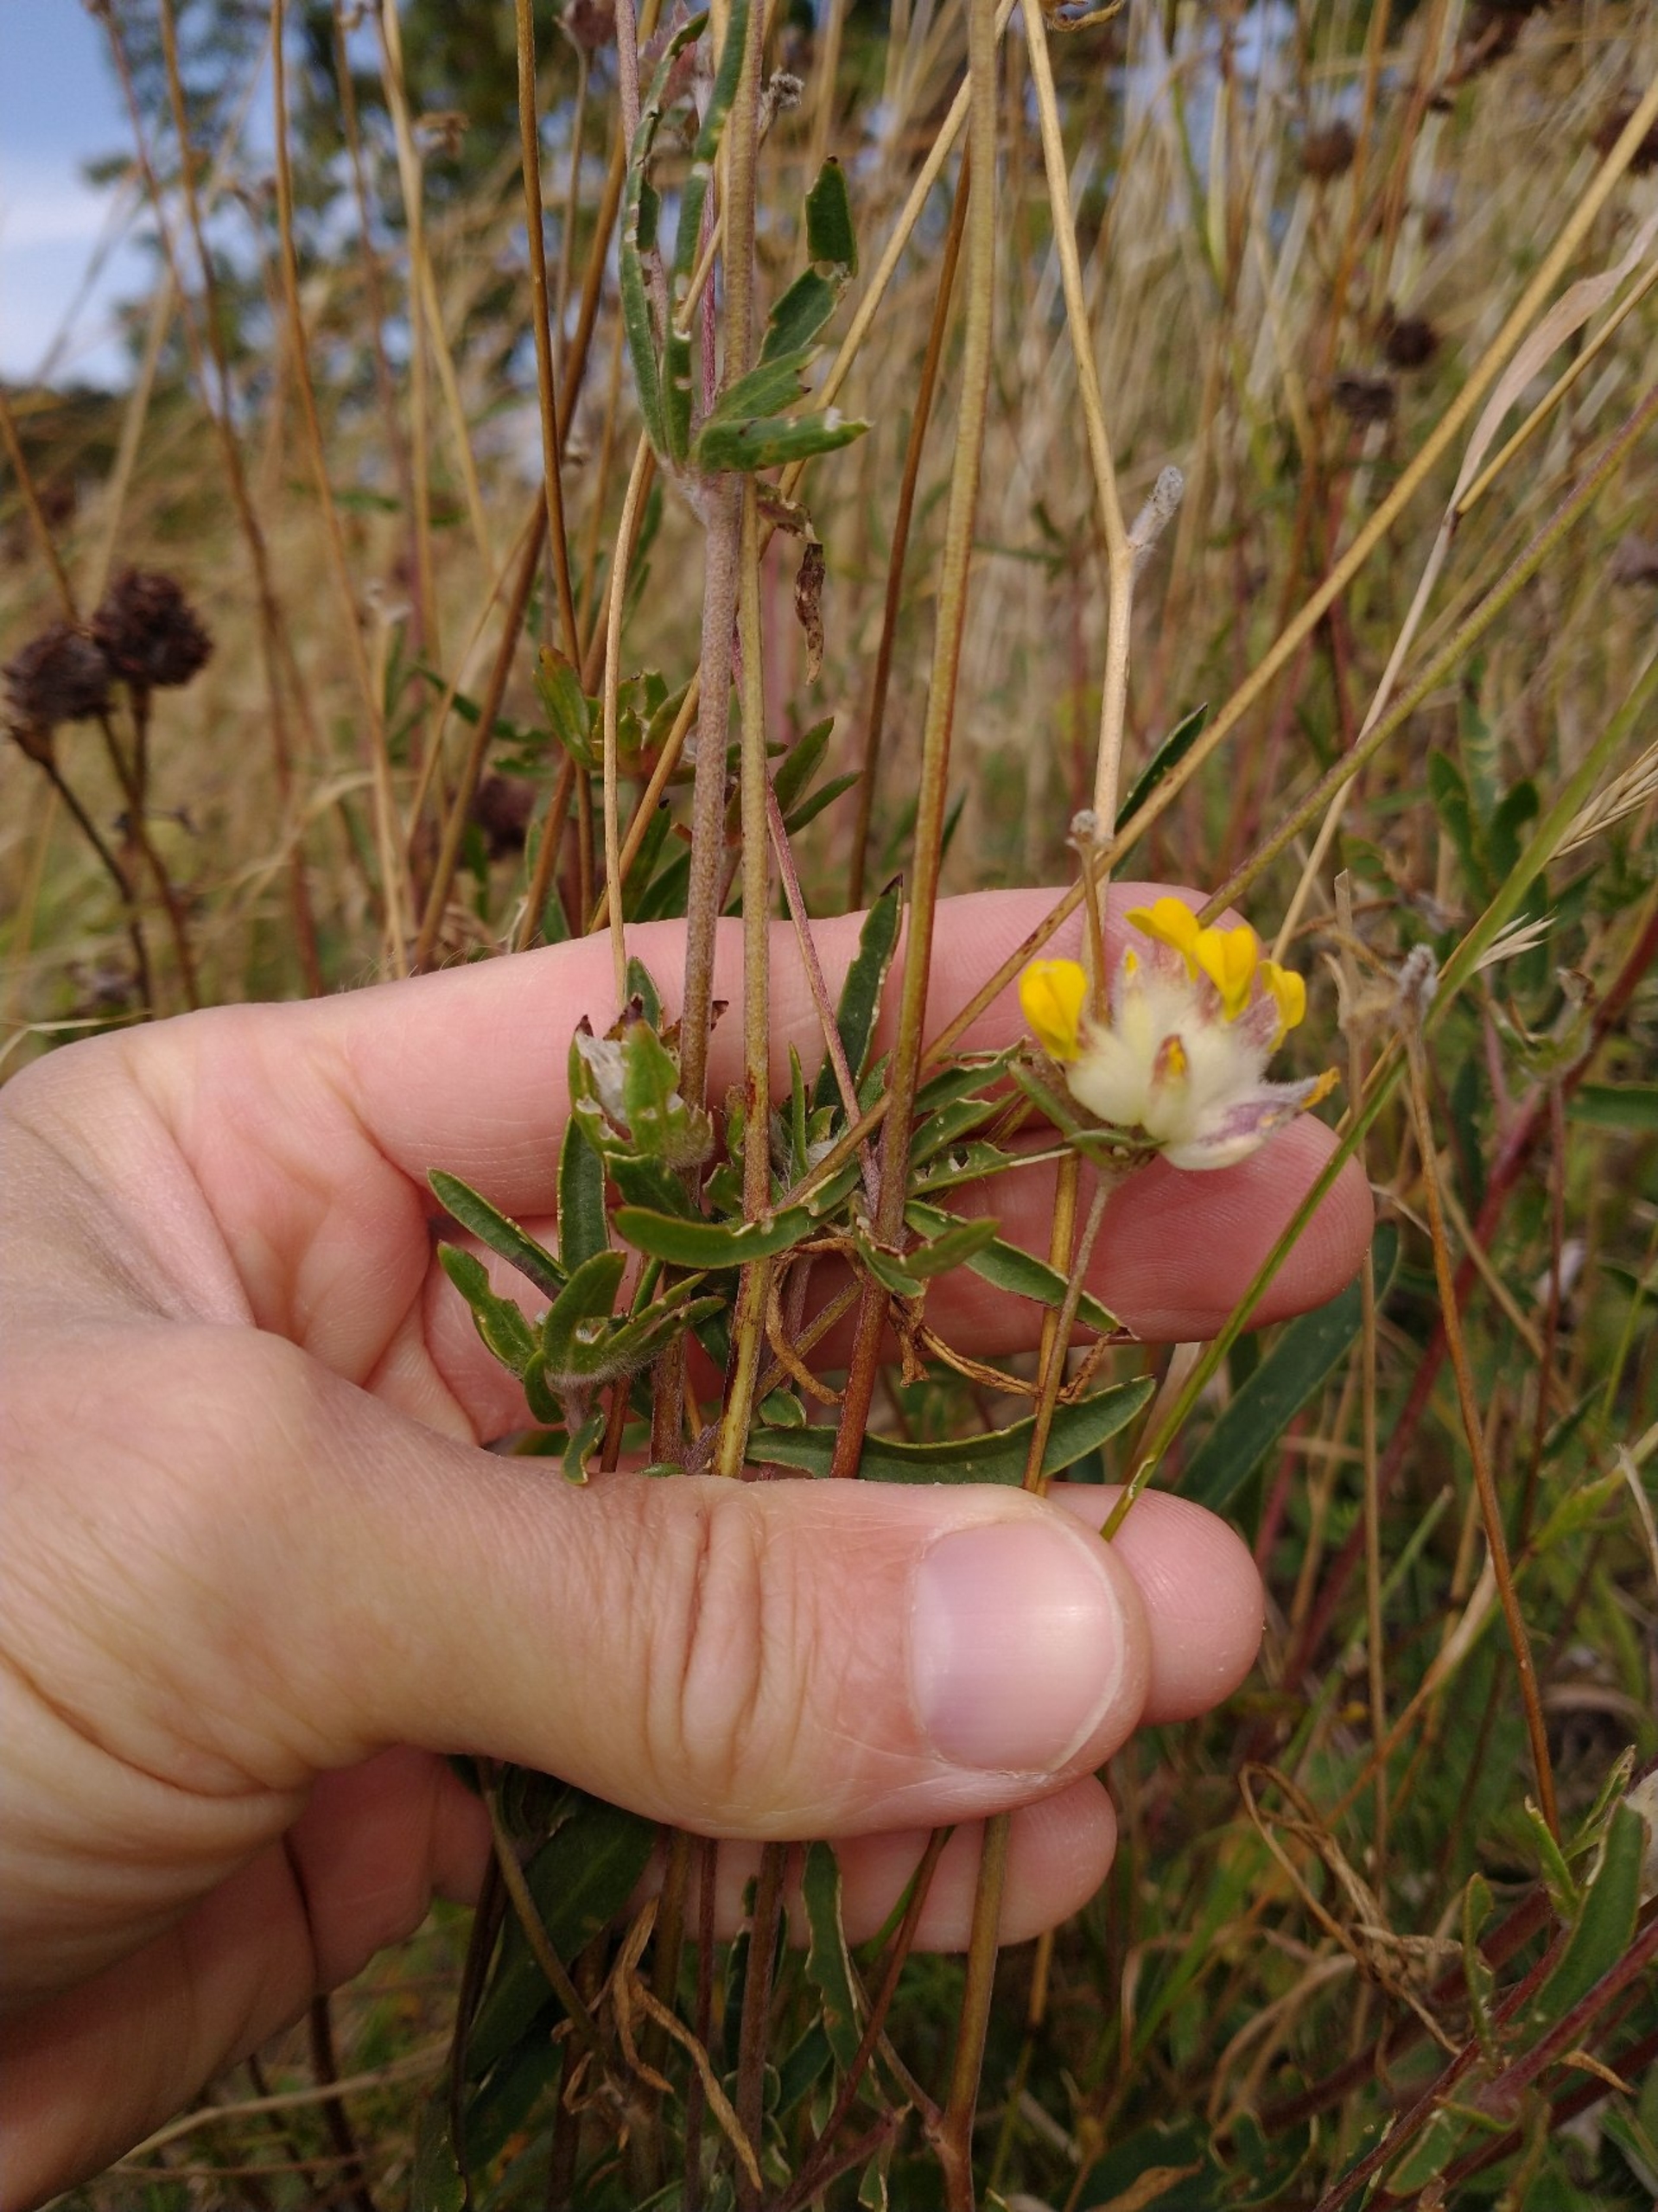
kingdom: Plantae
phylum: Tracheophyta
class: Magnoliopsida
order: Fabales
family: Fabaceae
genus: Anthyllis
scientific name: Anthyllis vulneraria
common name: Rundbælg
